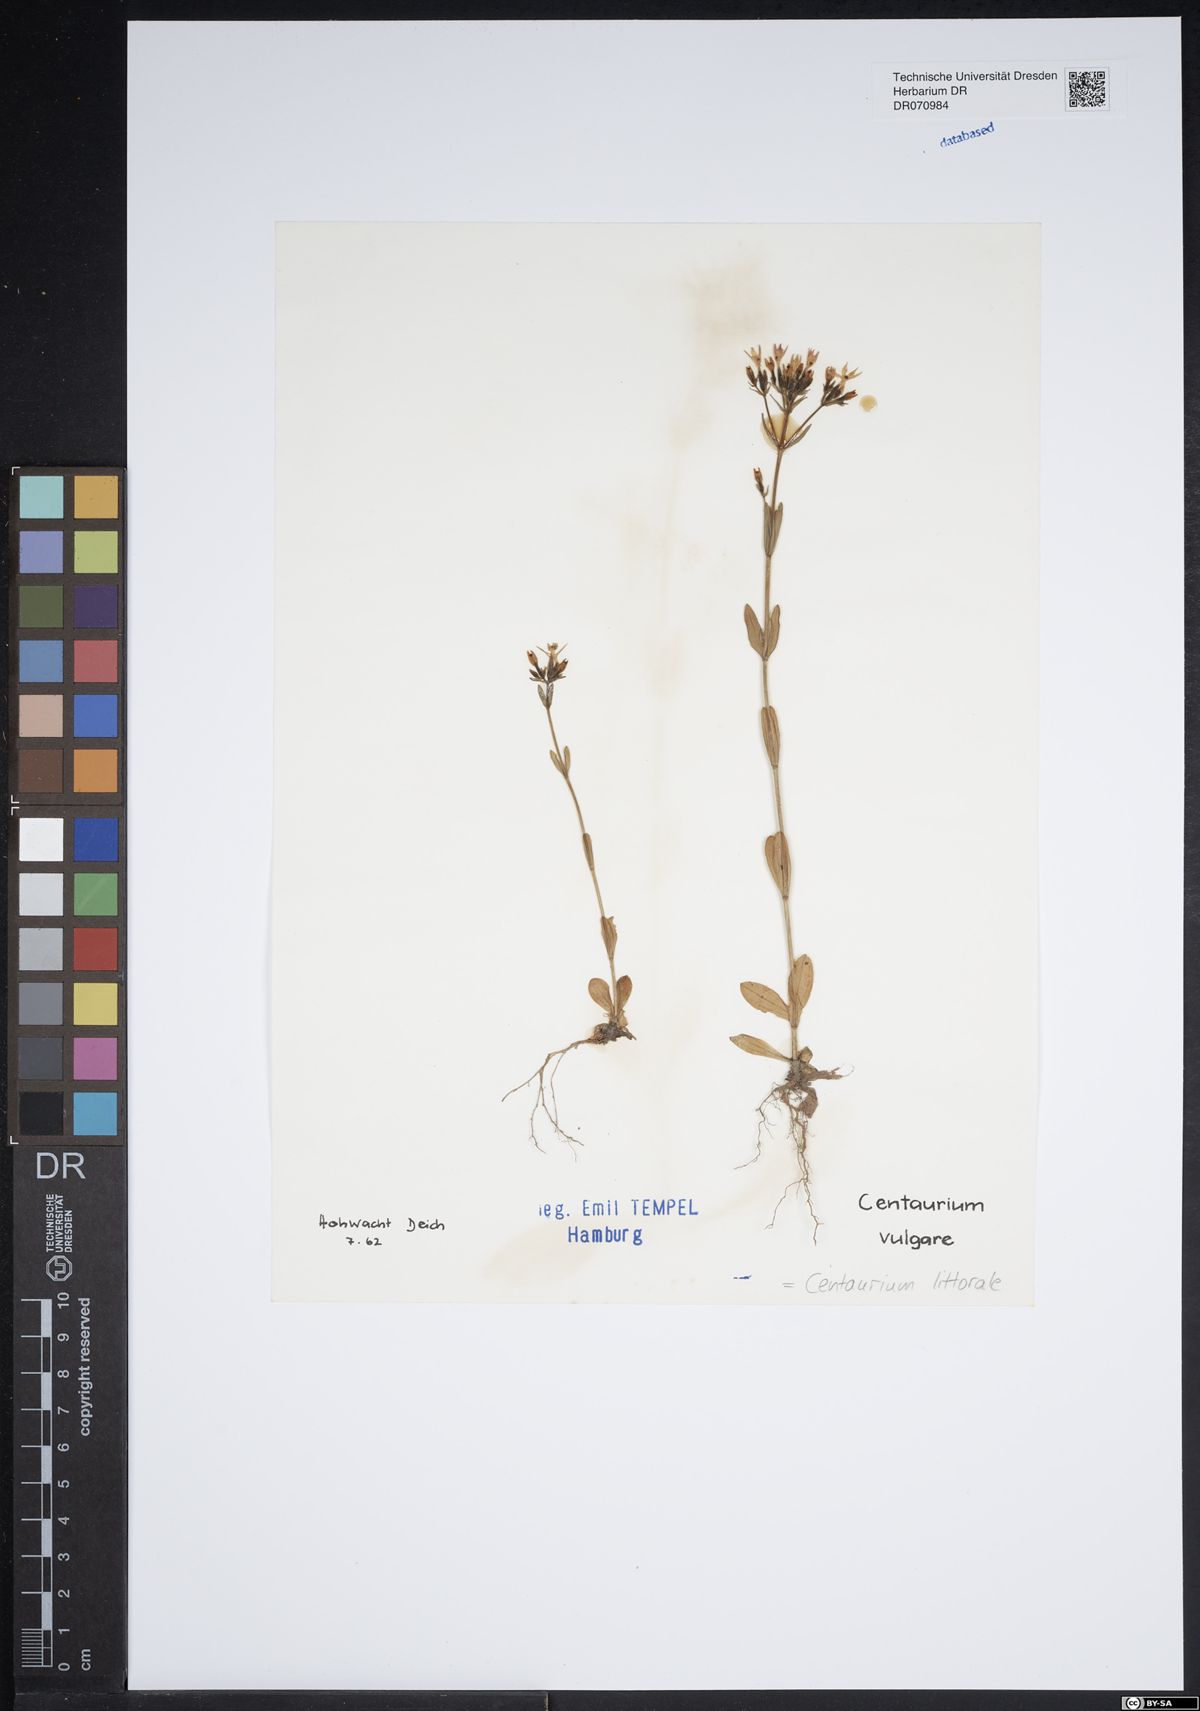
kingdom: Plantae
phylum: Tracheophyta
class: Magnoliopsida
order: Gentianales
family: Gentianaceae
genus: Centaurium
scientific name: Centaurium littorale
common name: Seaside centaury
